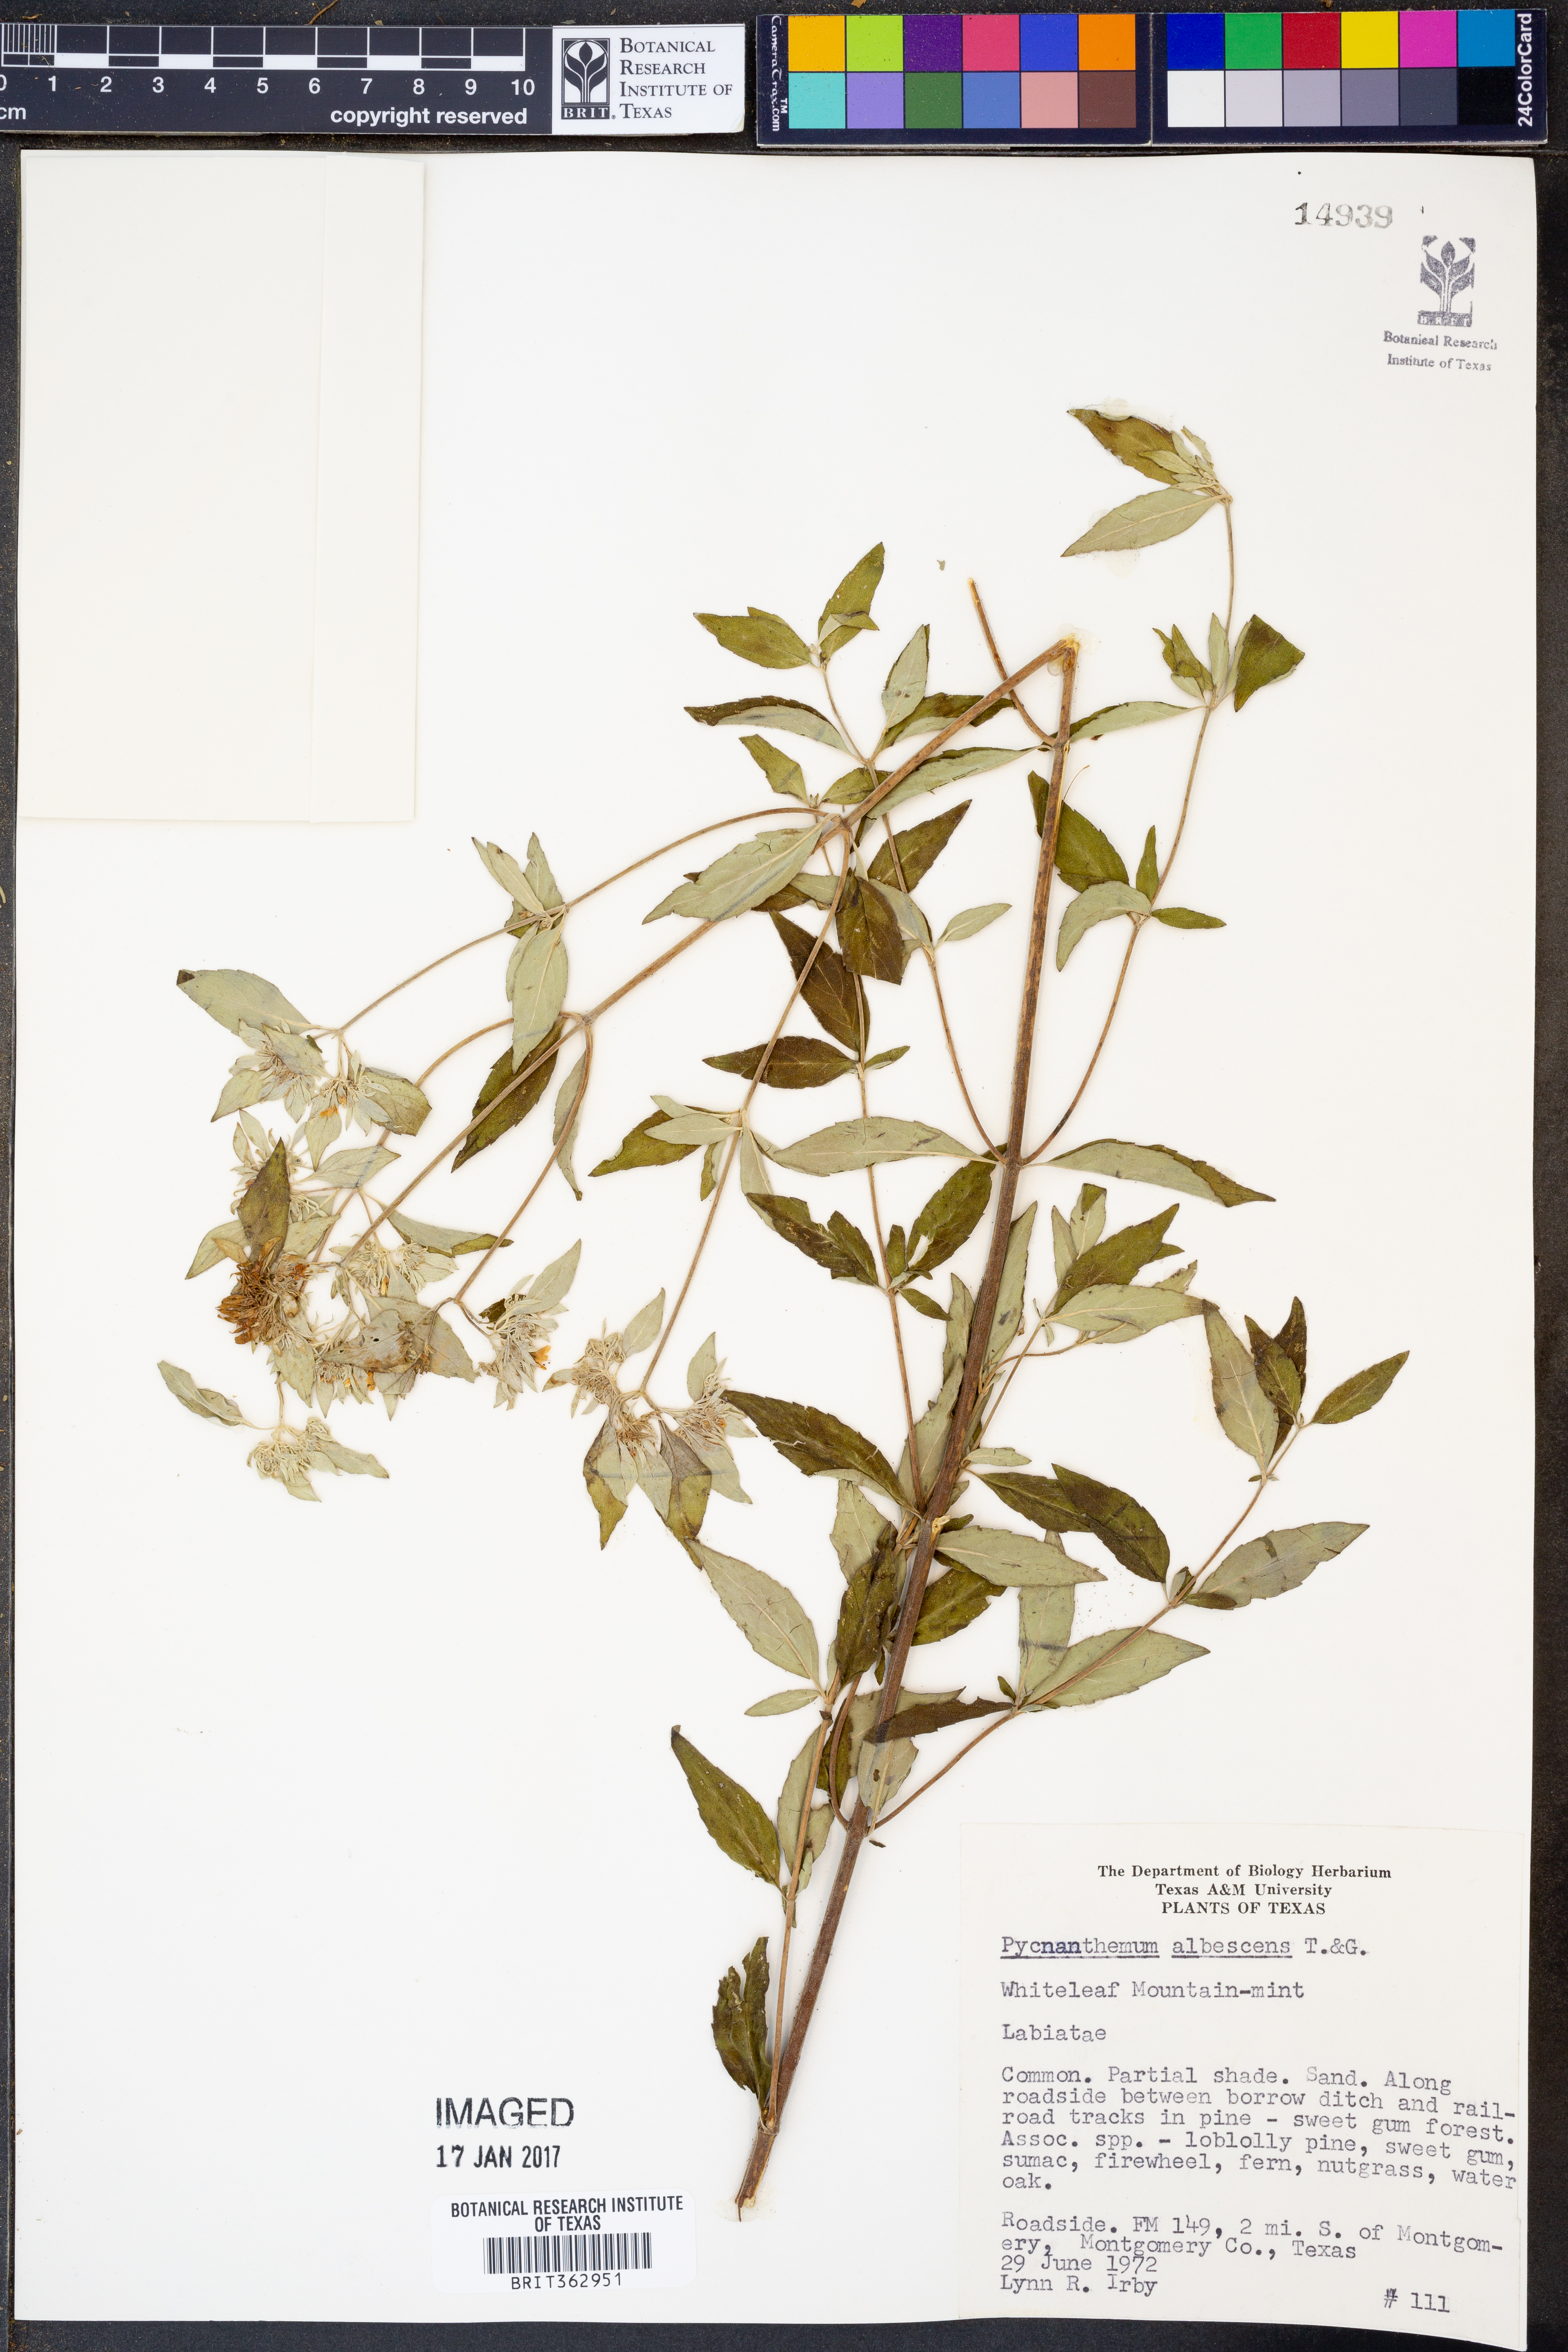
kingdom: Plantae
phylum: Tracheophyta
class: Magnoliopsida
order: Lamiales
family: Lamiaceae
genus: Pycnanthemum
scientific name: Pycnanthemum albescens
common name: White-leaf mountain-mint
